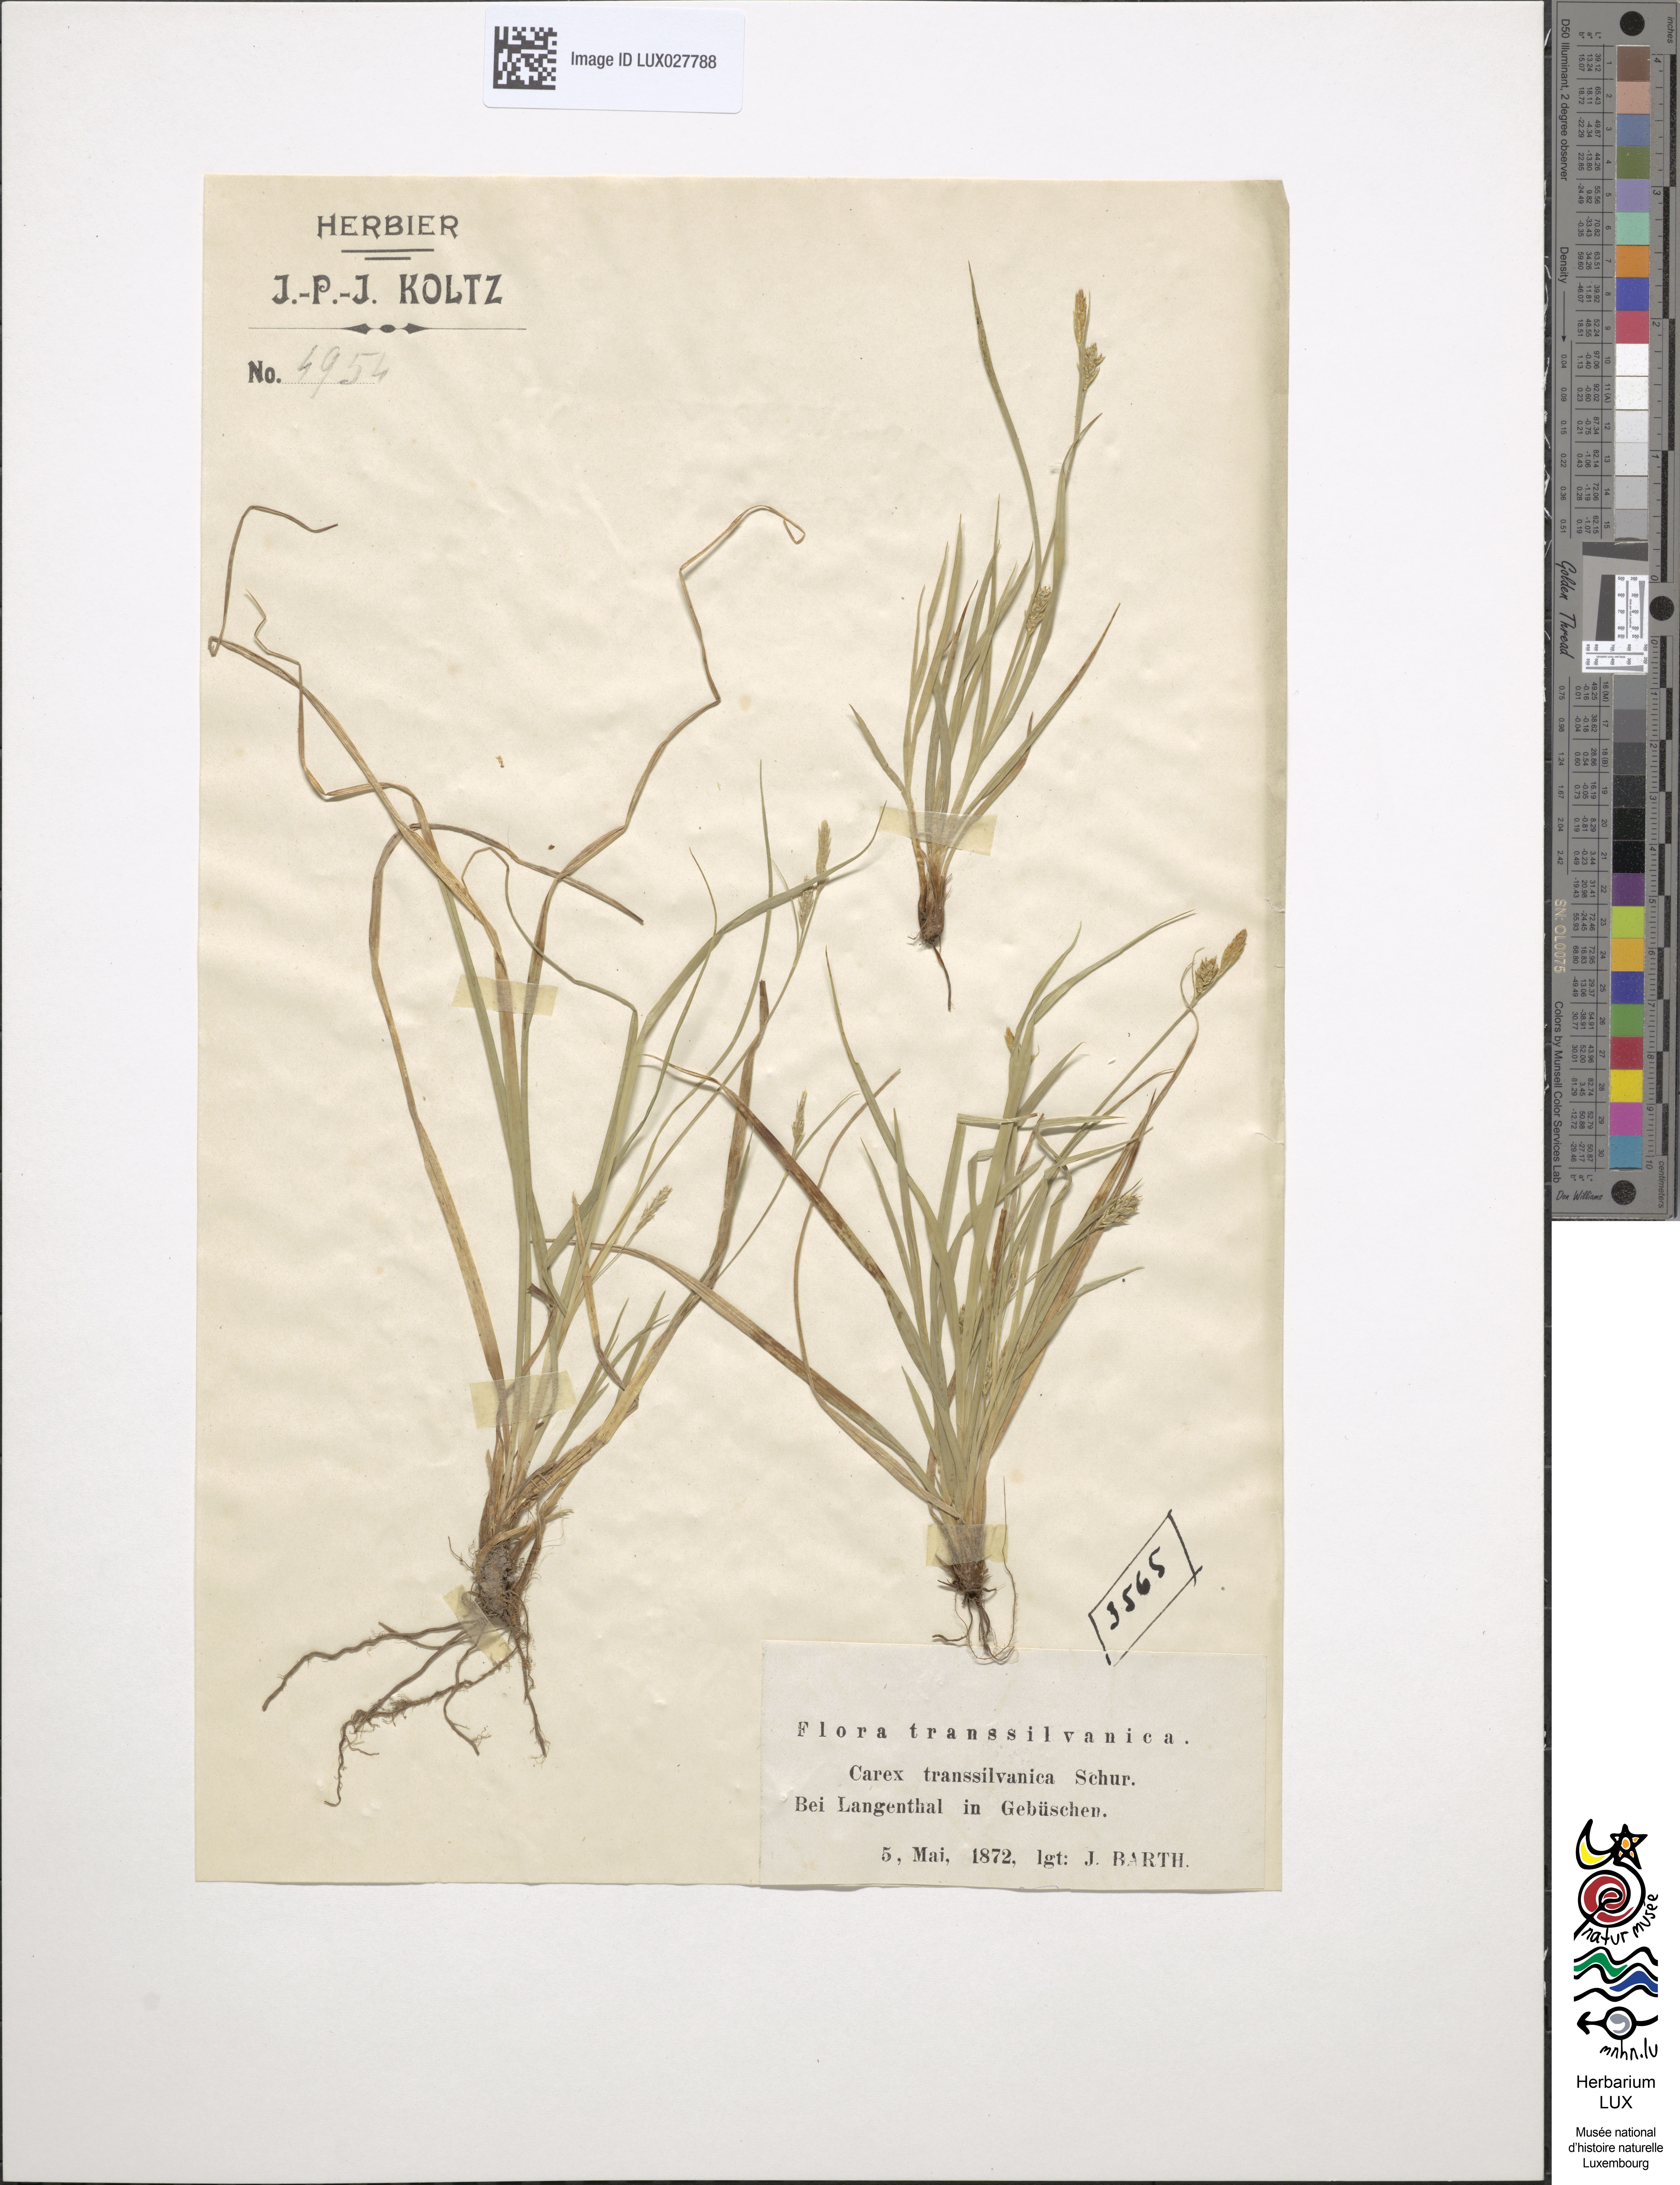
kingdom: Plantae
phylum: Tracheophyta
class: Liliopsida
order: Poales
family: Cyperaceae
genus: Carex
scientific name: Carex depressa
